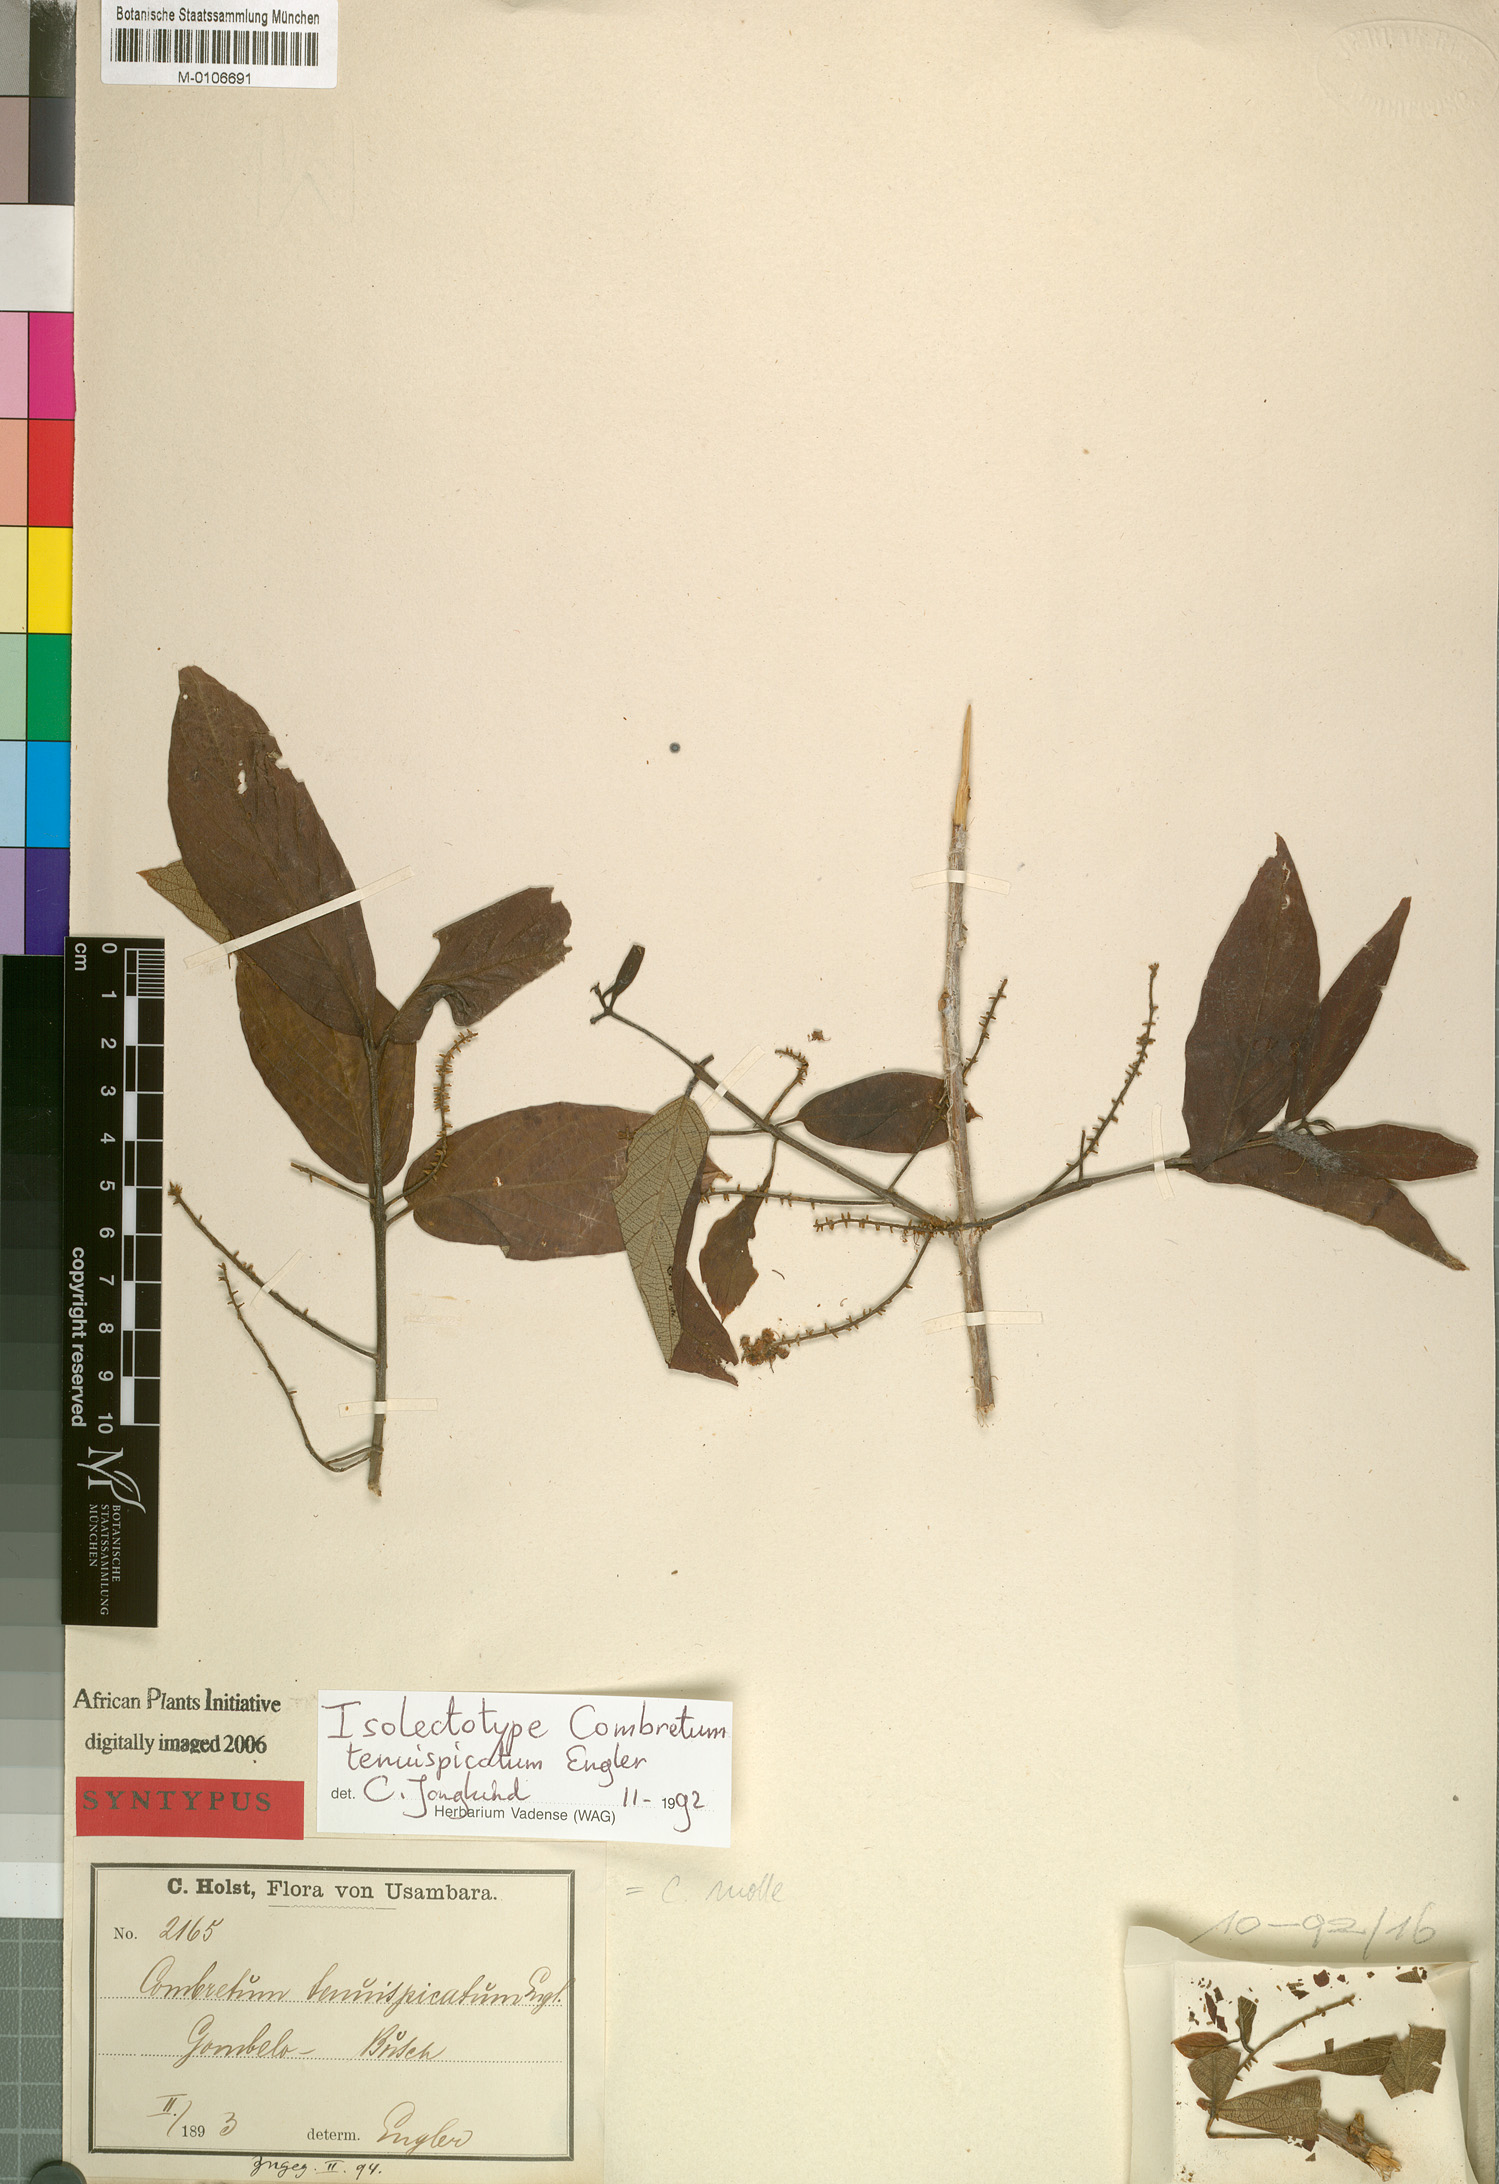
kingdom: Plantae
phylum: Tracheophyta
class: Magnoliopsida
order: Myrtales
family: Combretaceae
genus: Combretum
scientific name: Combretum molle
